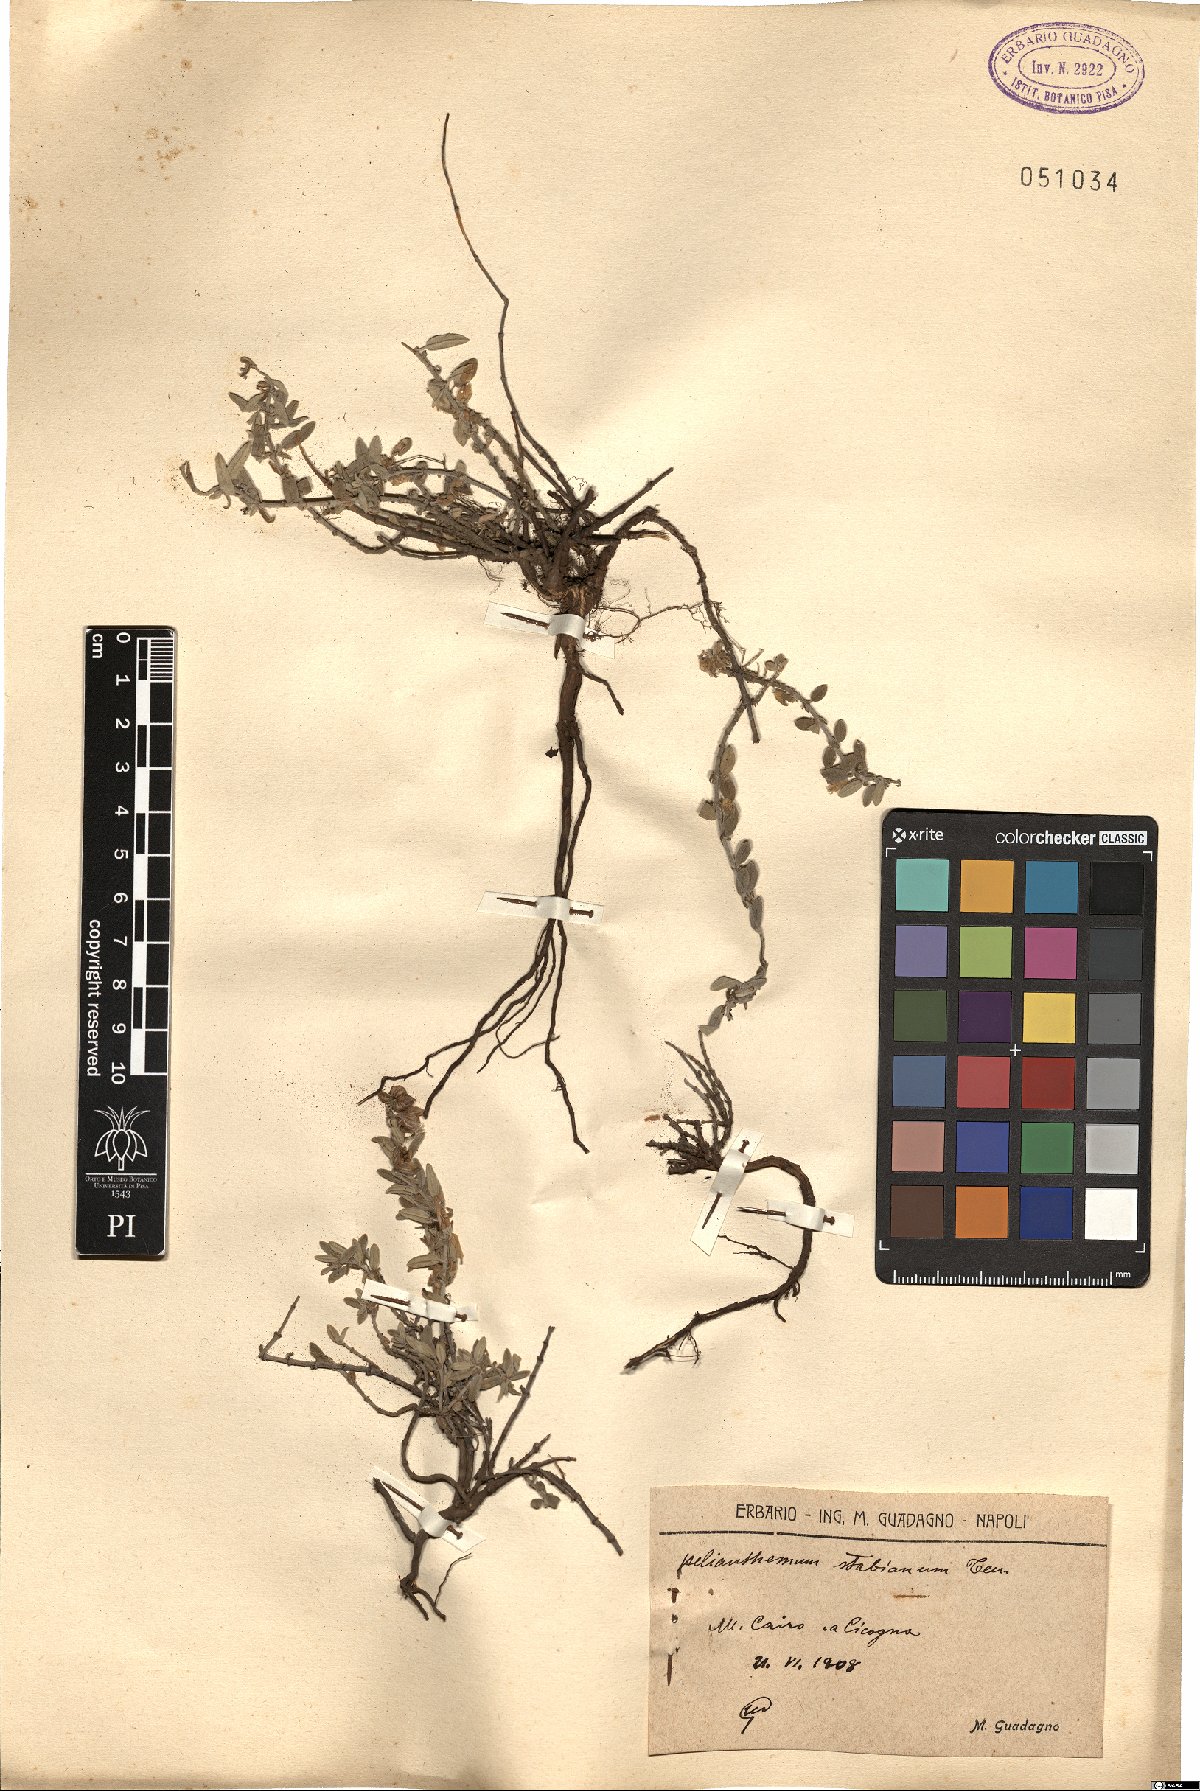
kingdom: Plantae
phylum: Tracheophyta
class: Magnoliopsida
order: Malvales
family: Cistaceae
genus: Helianthemum
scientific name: Helianthemum croceum
